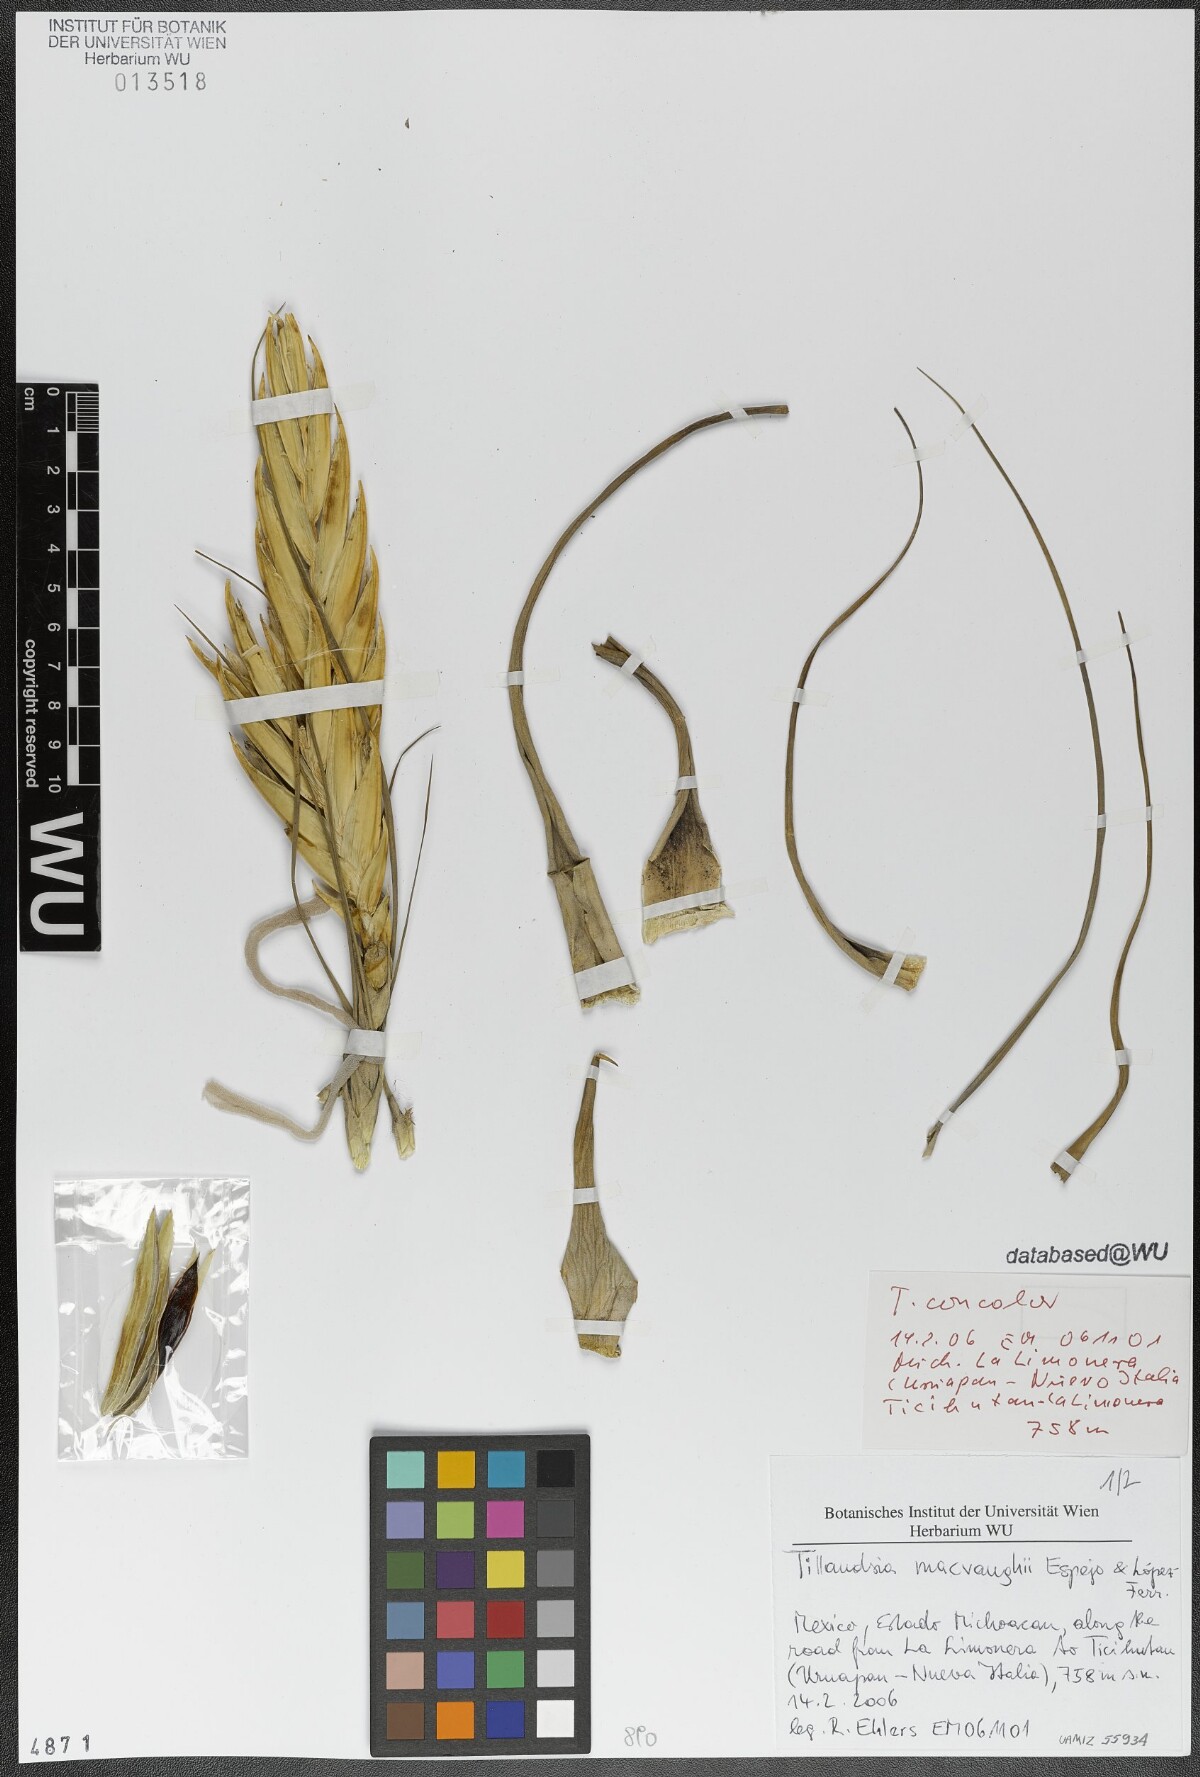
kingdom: Plantae
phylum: Tracheophyta
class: Liliopsida
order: Poales
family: Bromeliaceae
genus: Tillandsia
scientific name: Tillandsia macvaughii
